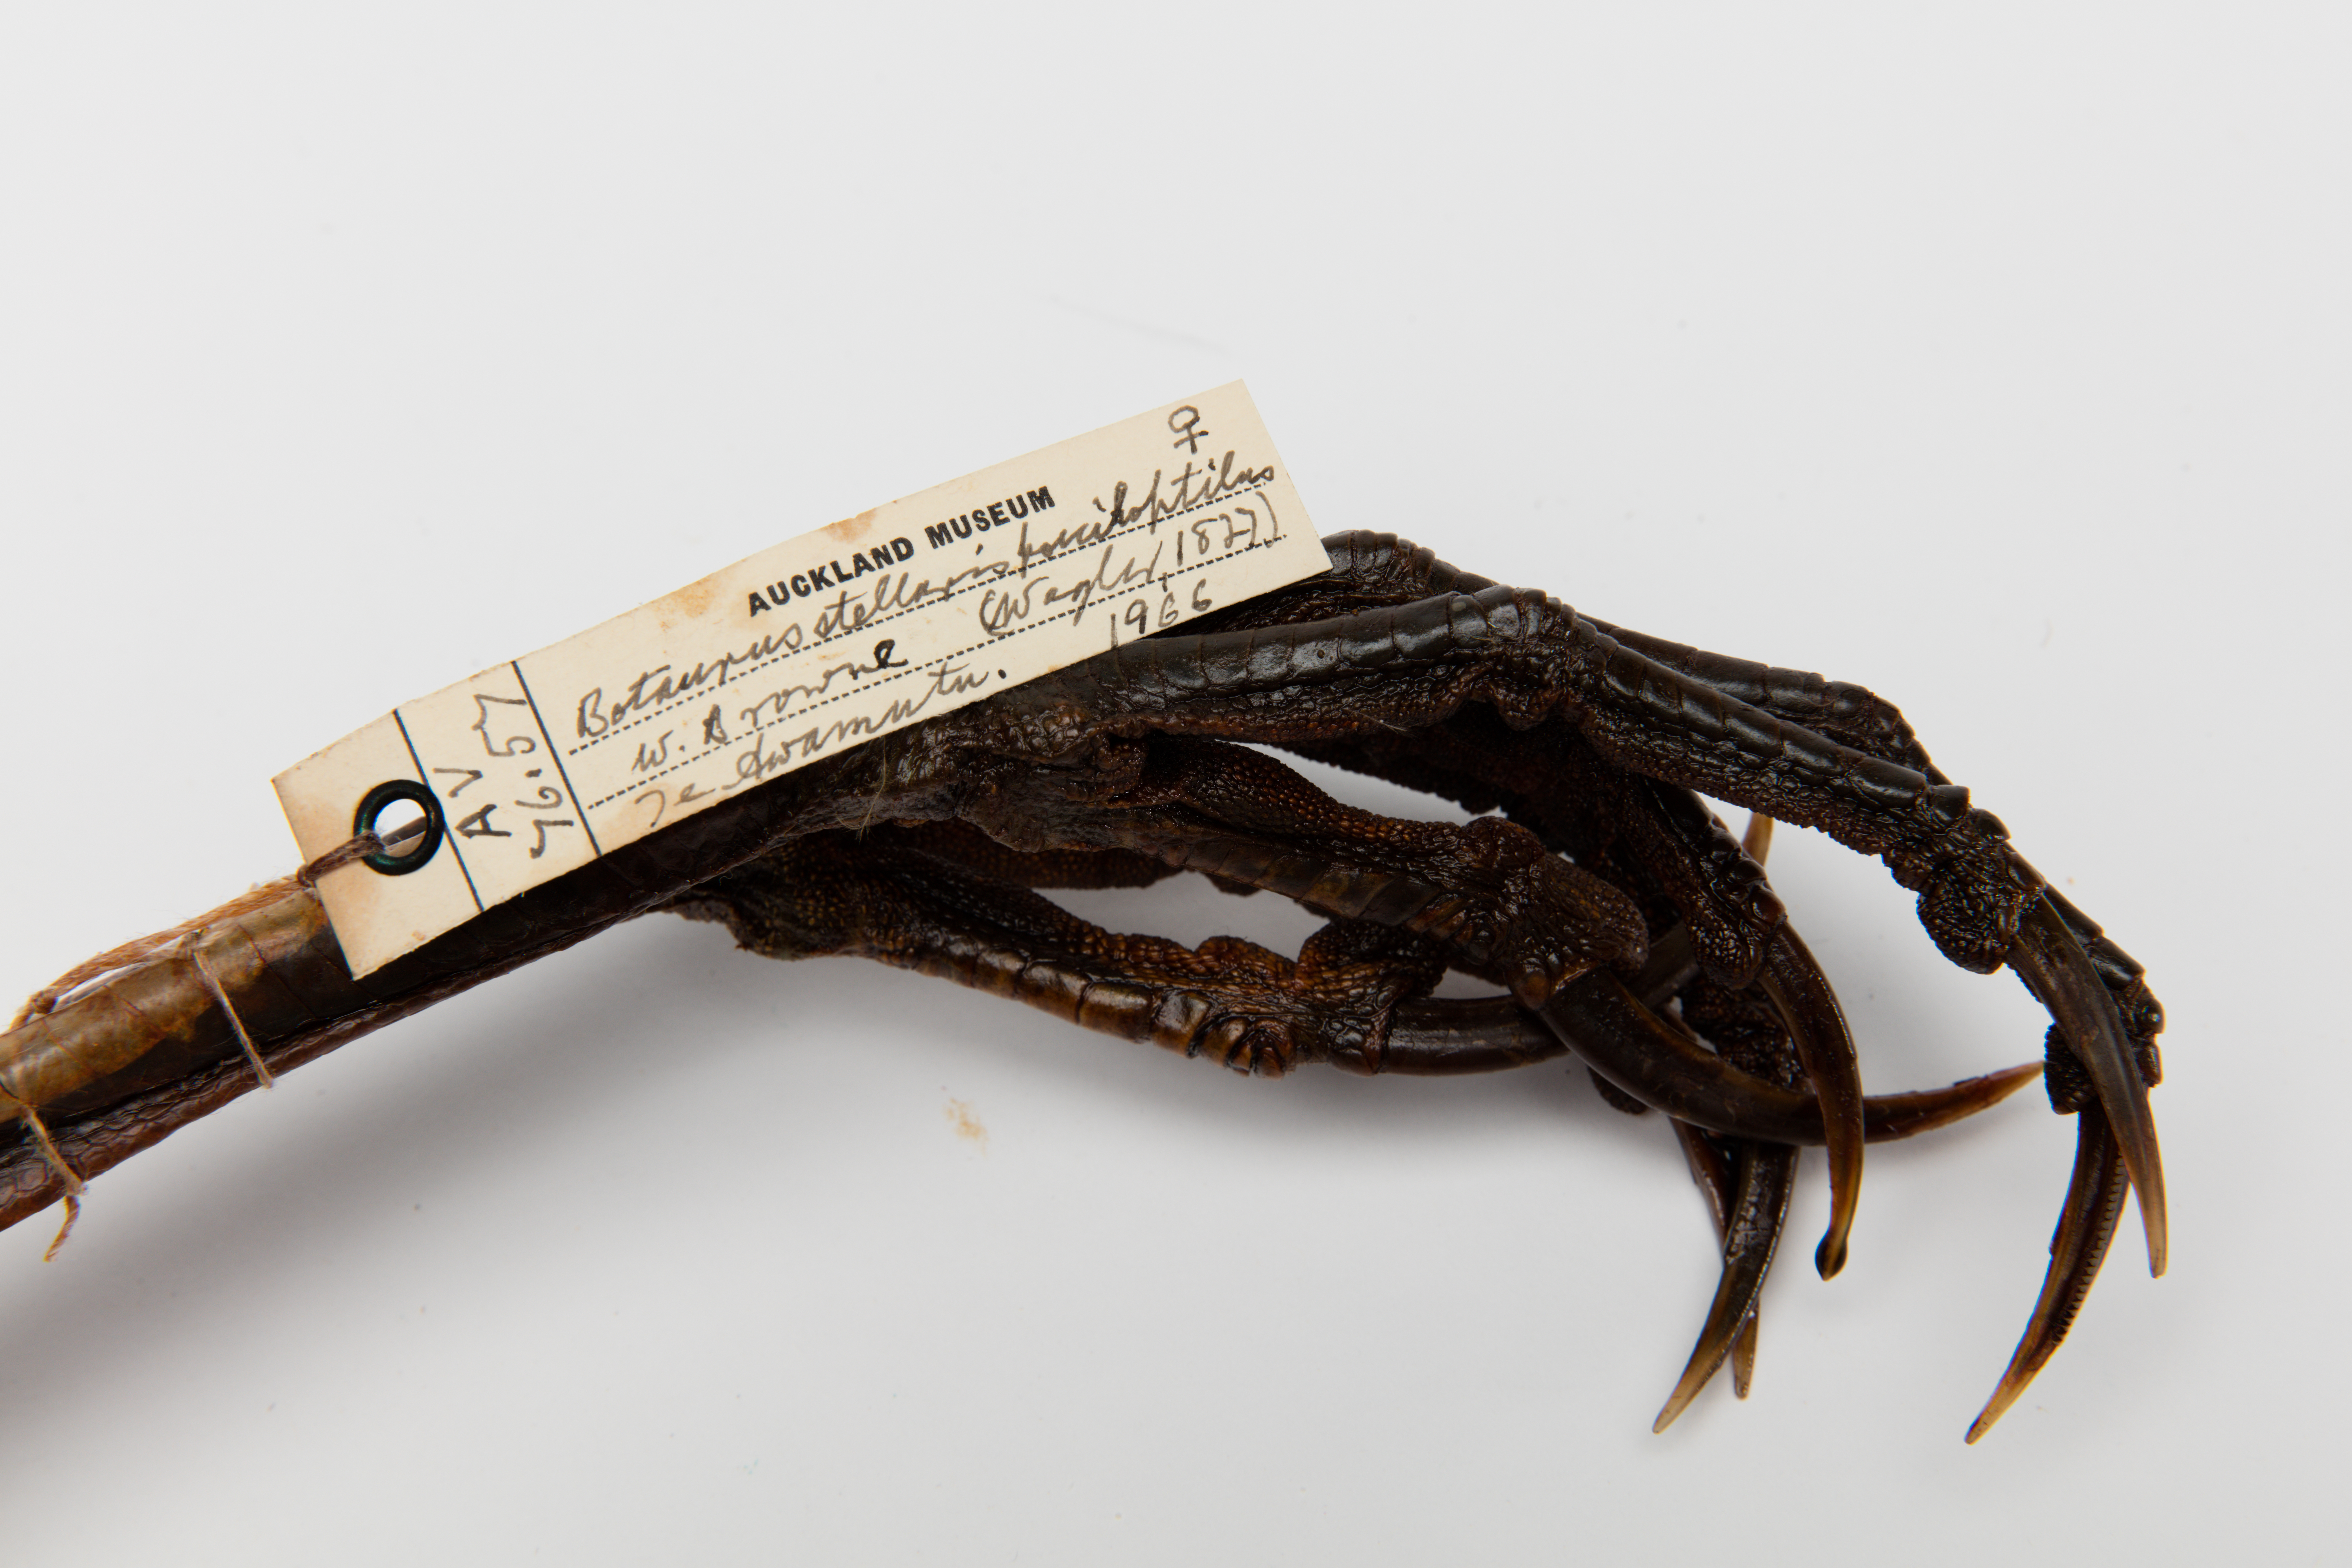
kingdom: Animalia
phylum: Chordata
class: Aves
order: Pelecaniformes
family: Ardeidae
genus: Botaurus
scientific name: Botaurus poiciloptilus
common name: Australasian bittern
